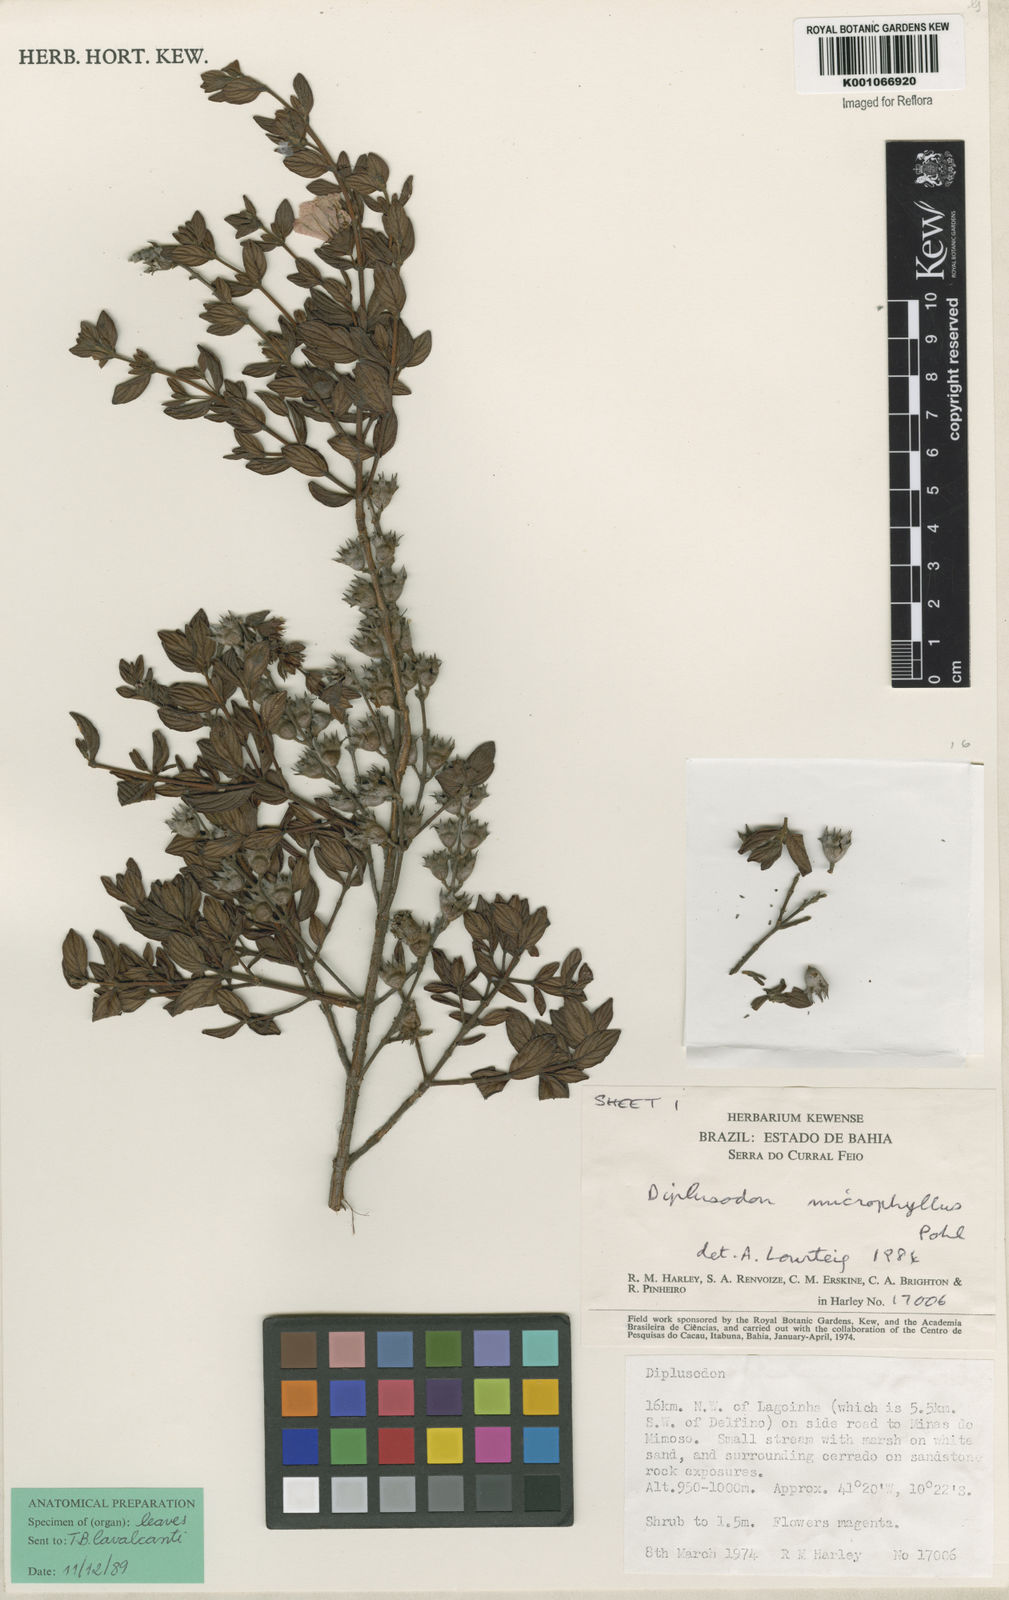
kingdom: Plantae
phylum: Tracheophyta
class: Magnoliopsida
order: Myrtales
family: Lythraceae
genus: Diplusodon
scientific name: Diplusodon microphyllus
